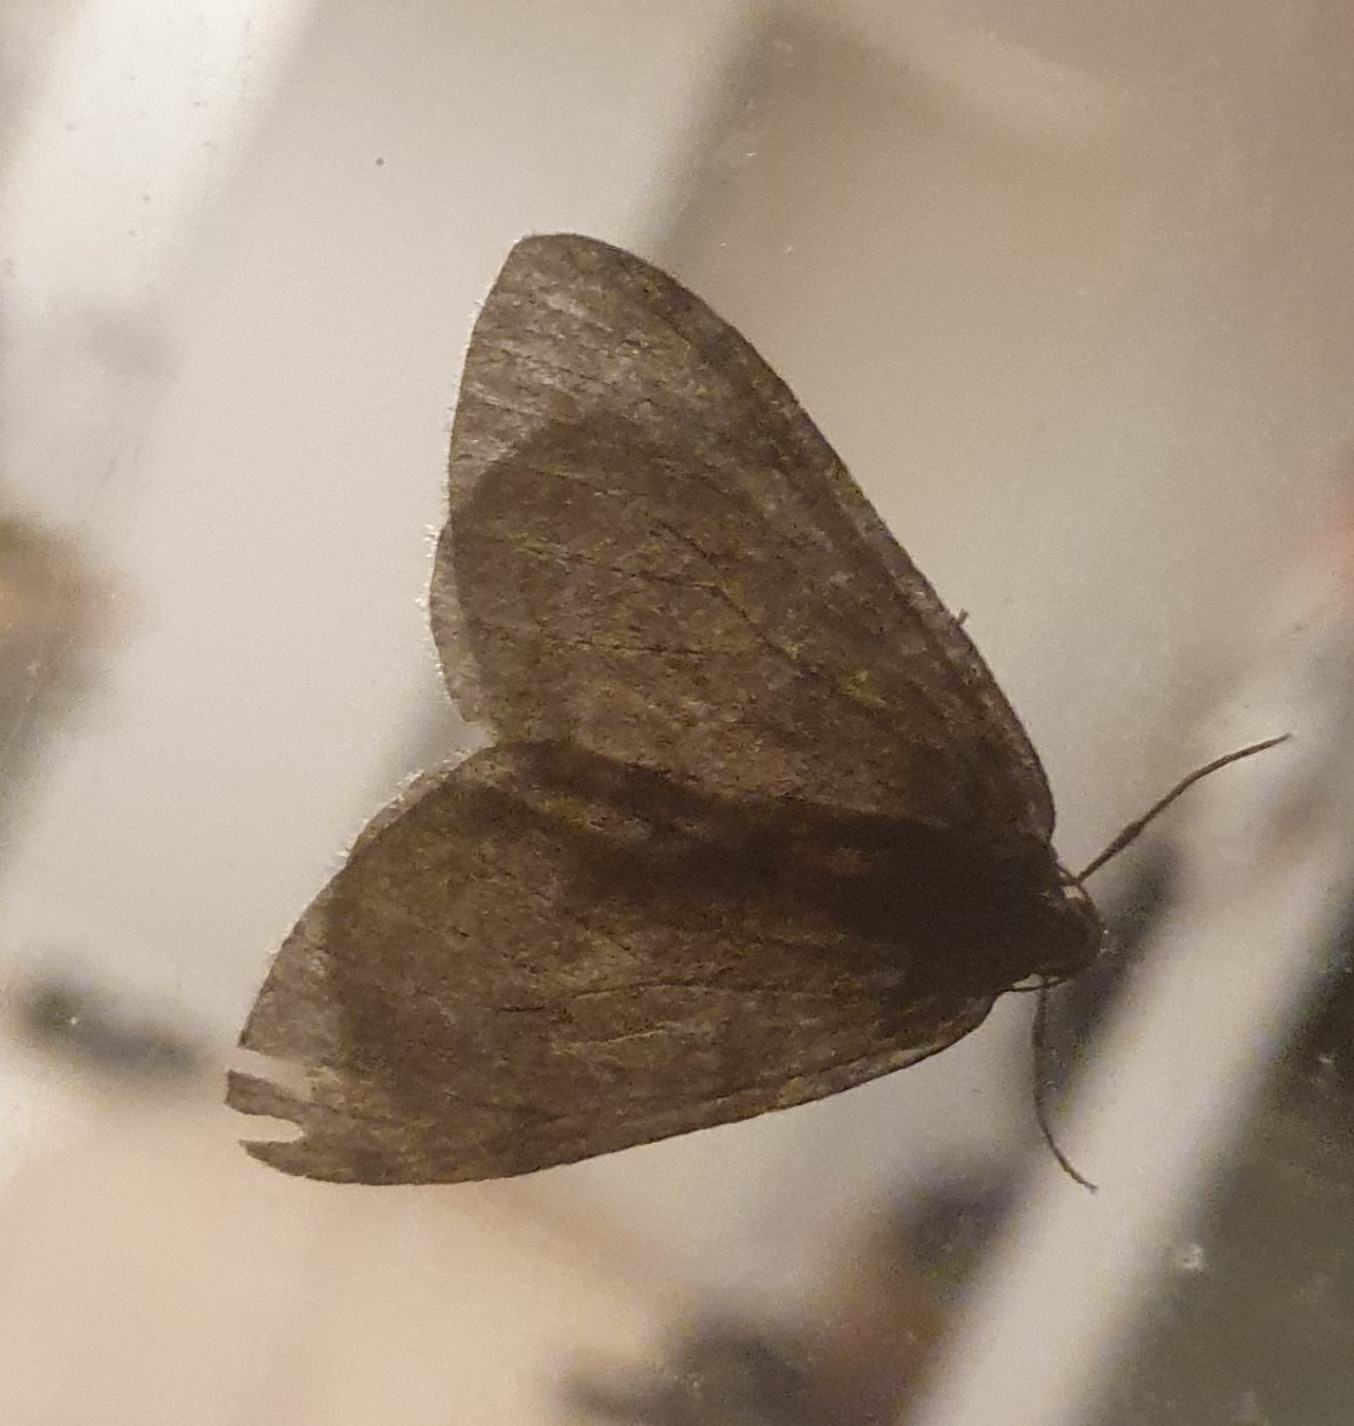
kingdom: Animalia
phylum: Arthropoda
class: Insecta
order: Lepidoptera
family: Geometridae
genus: Epirrita
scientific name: Epirrita
